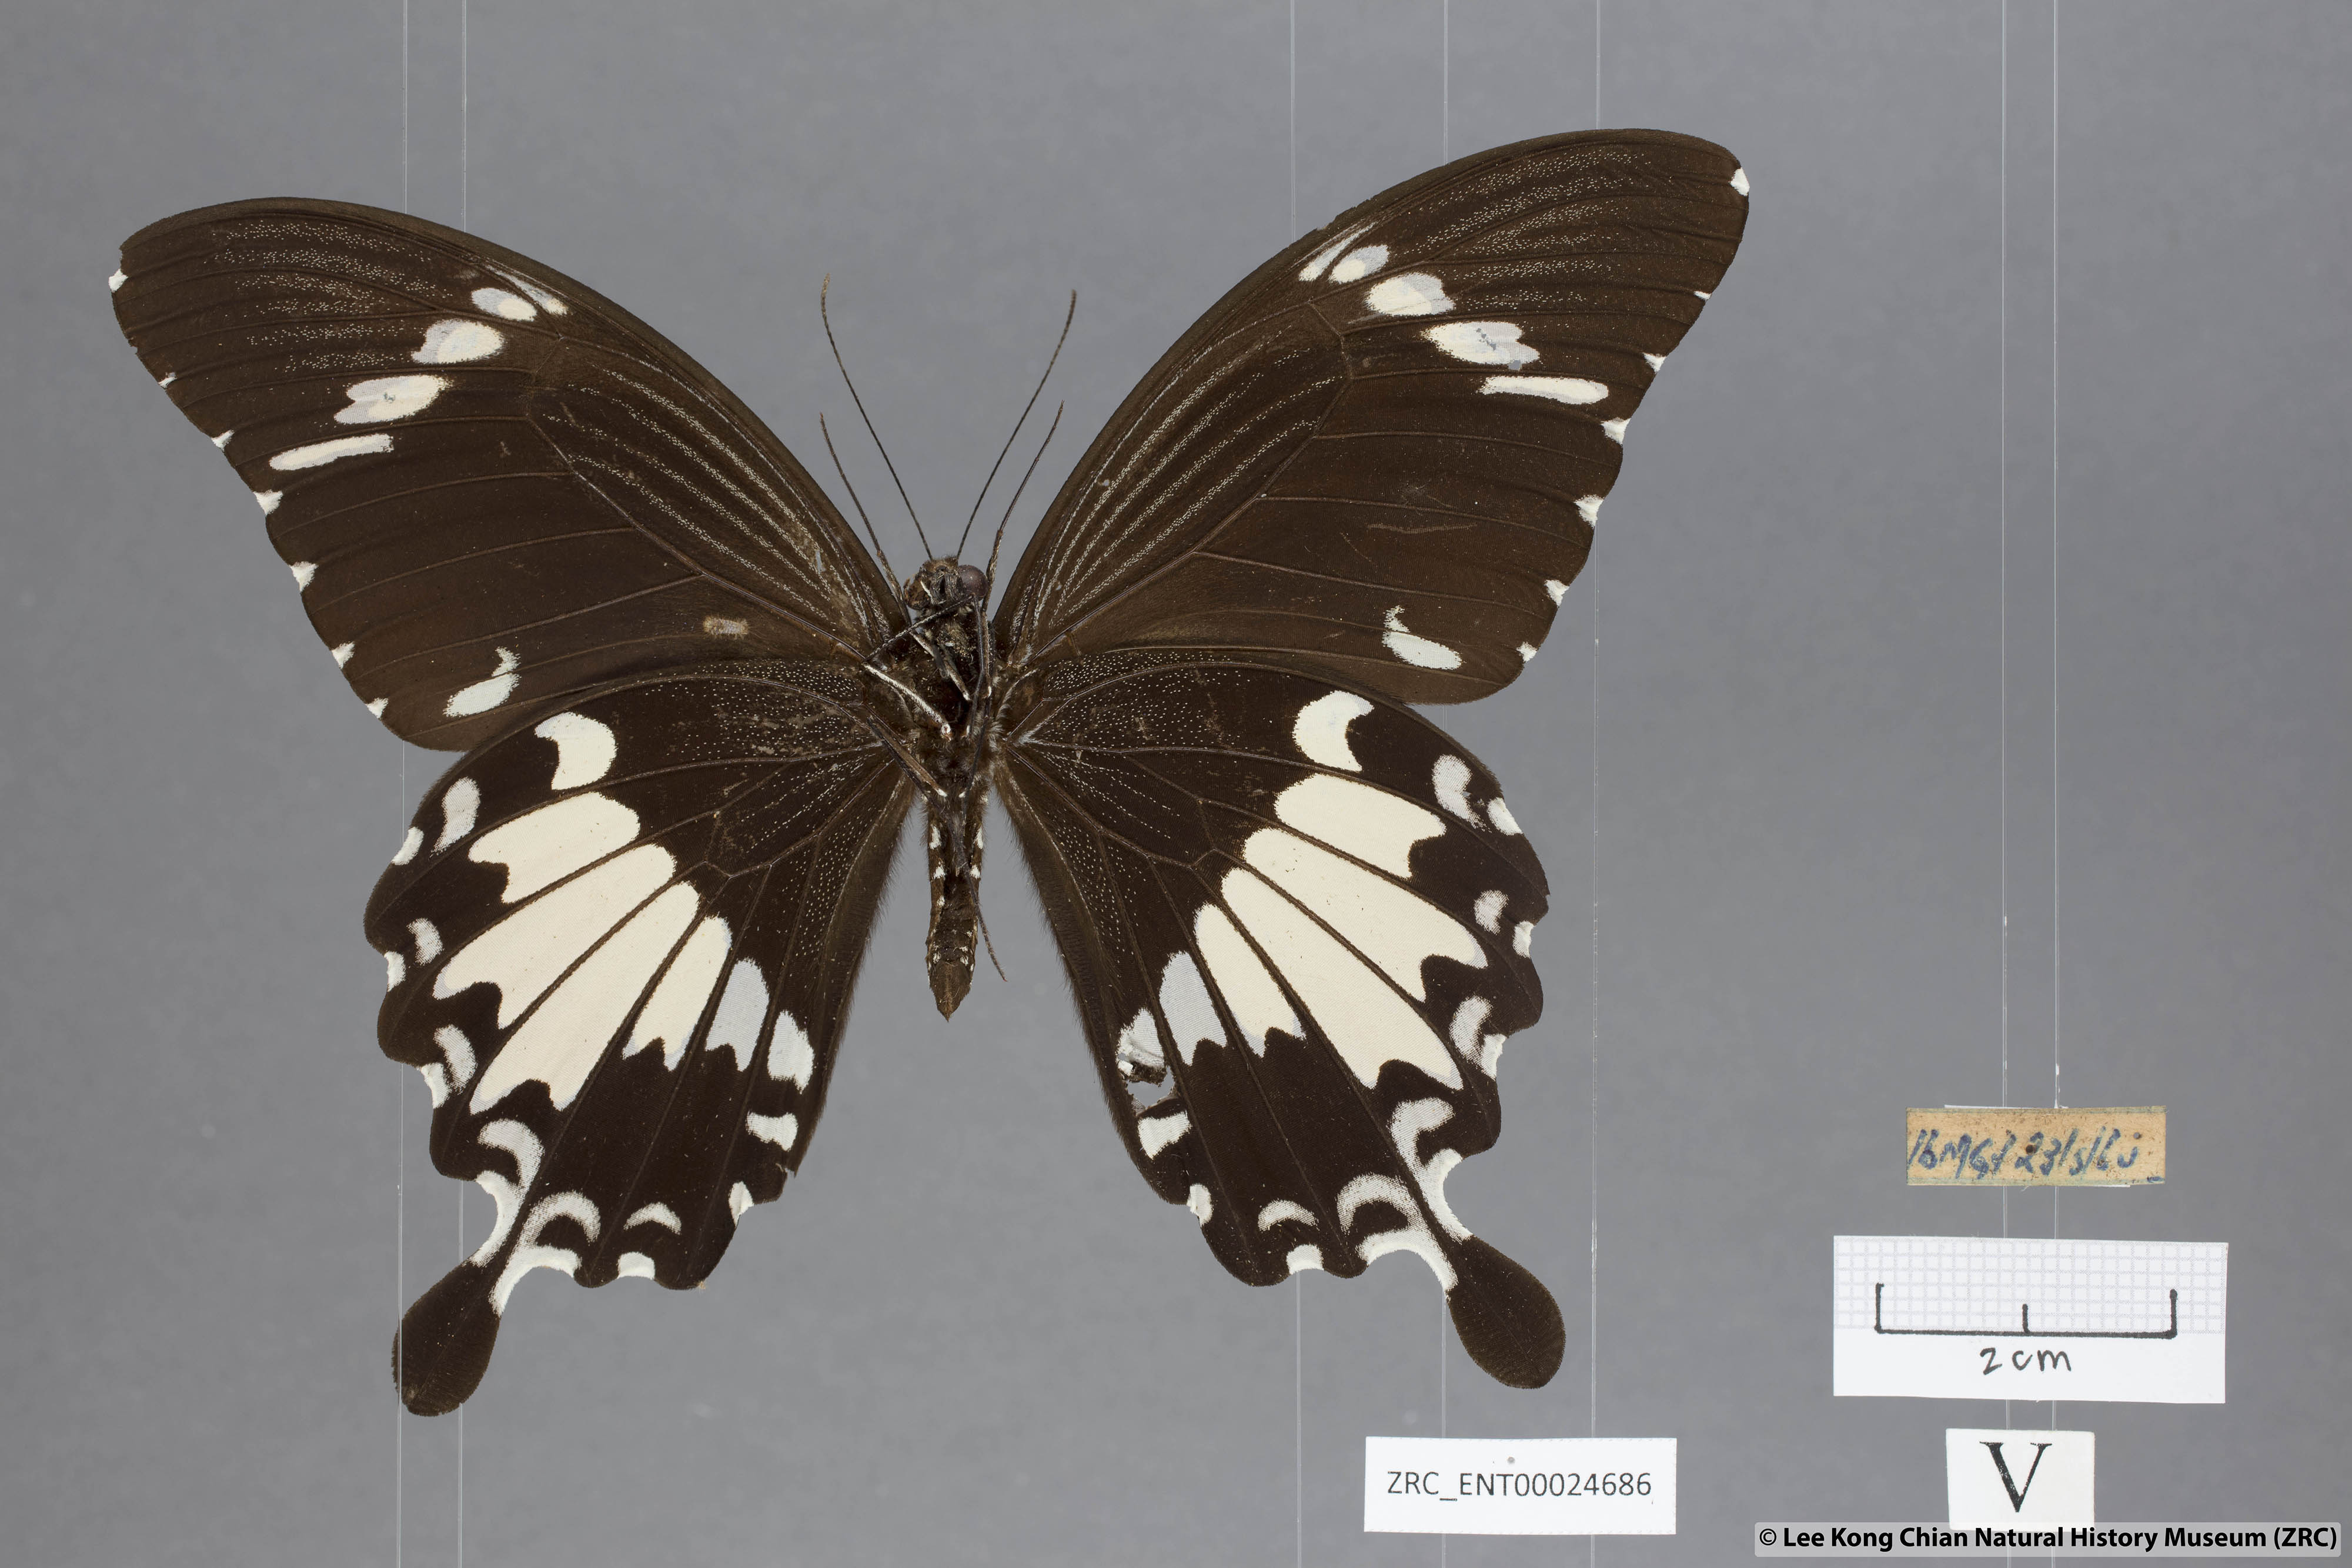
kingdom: Animalia
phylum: Arthropoda
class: Insecta
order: Lepidoptera
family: Papilionidae
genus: Papilio
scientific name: Papilio nephelus
